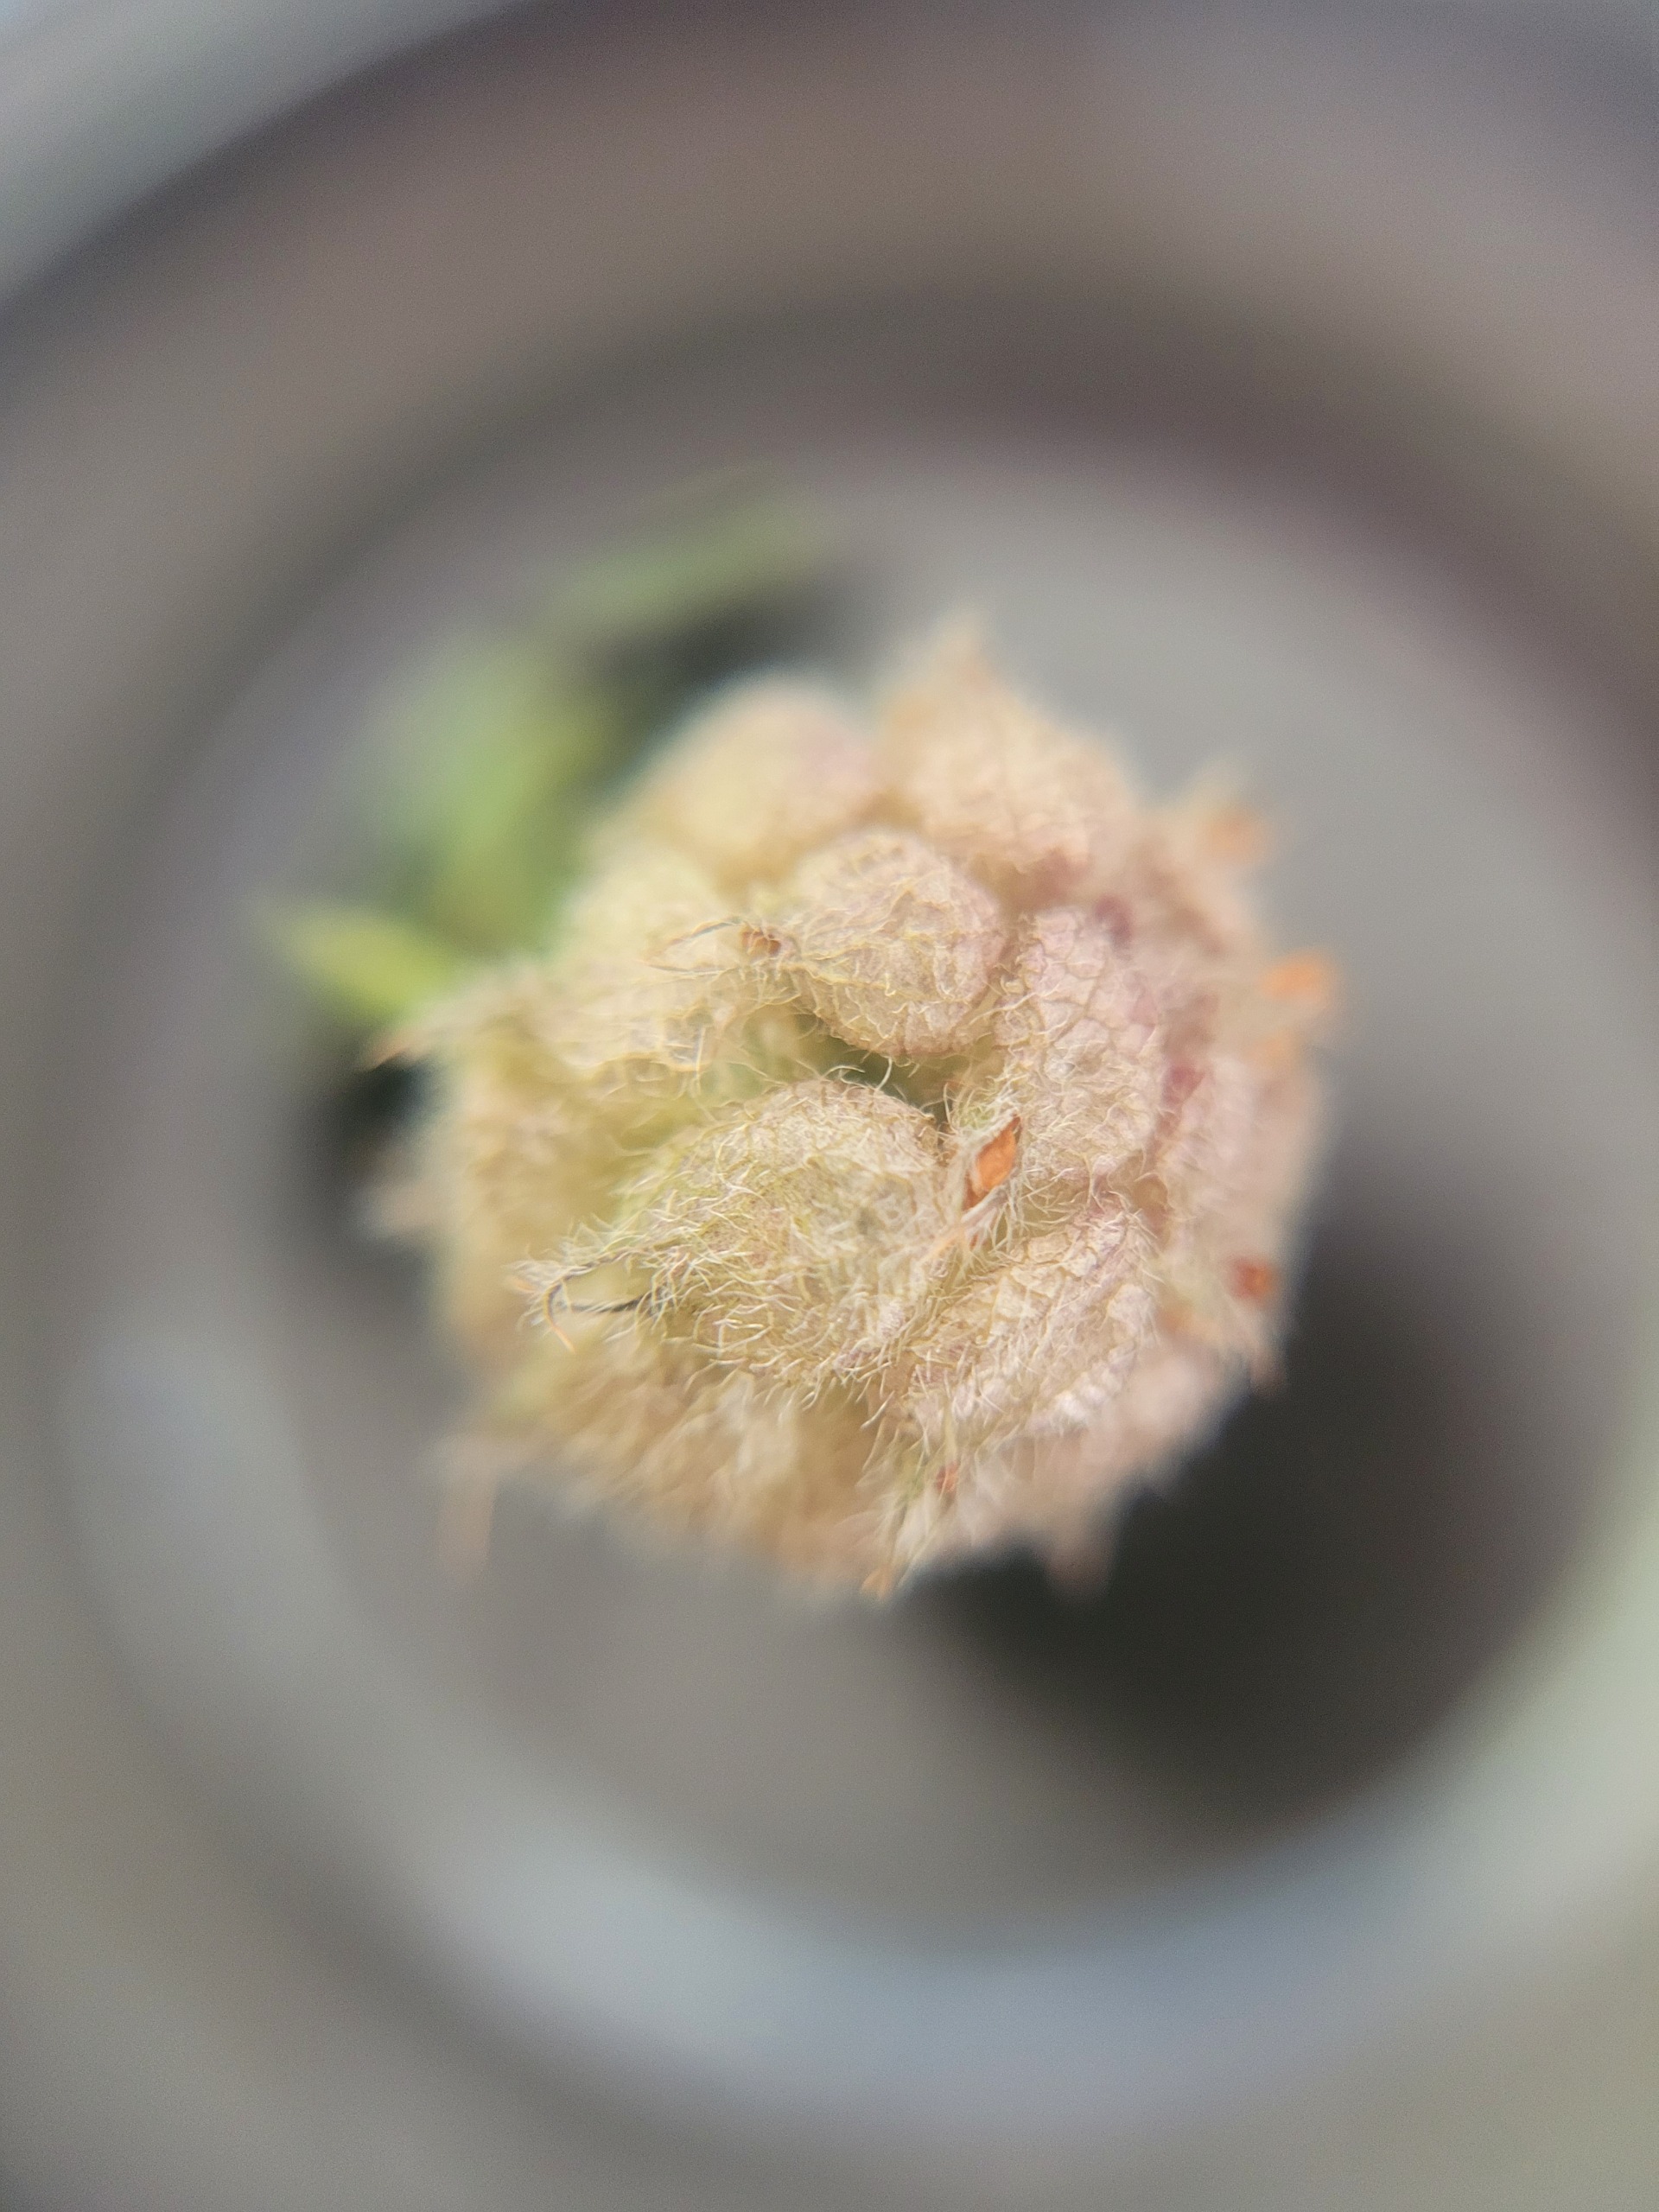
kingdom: Plantae
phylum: Tracheophyta
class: Magnoliopsida
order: Fabales
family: Fabaceae
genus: Trifolium
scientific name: Trifolium fragiferum
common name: Jordbær-kløver
